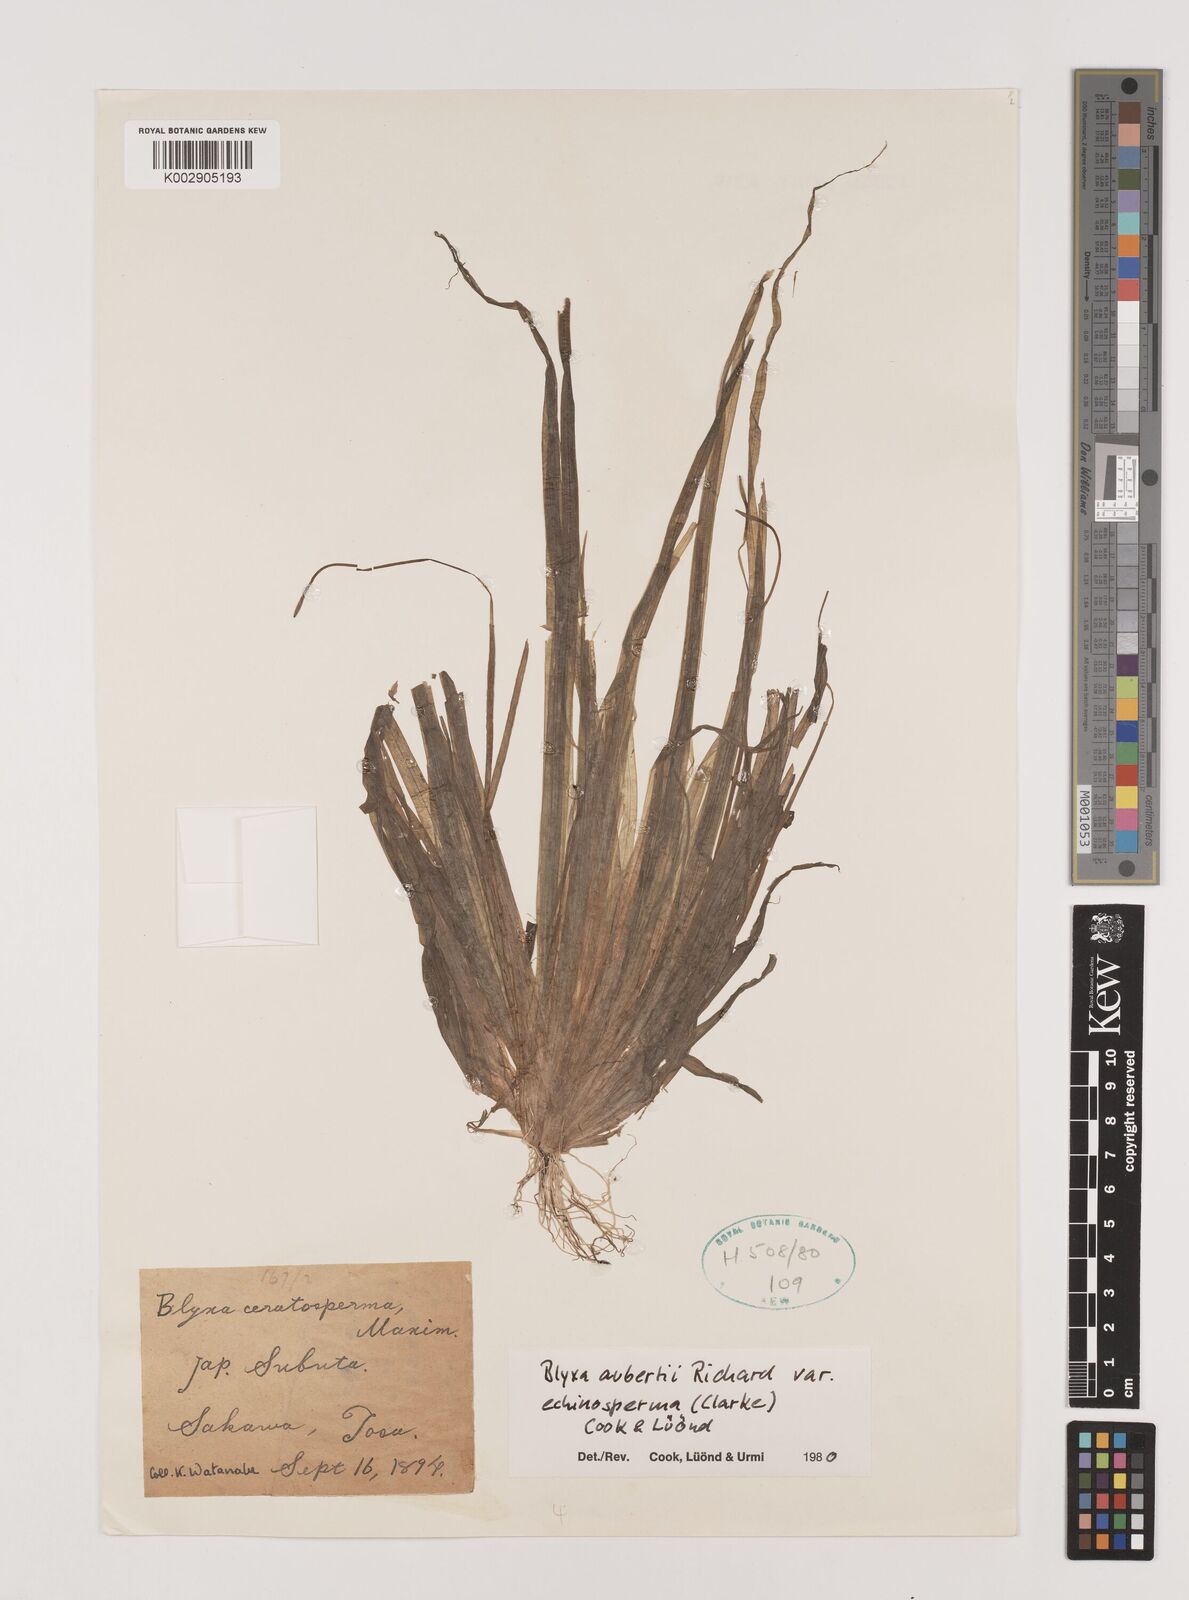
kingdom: Plantae
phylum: Tracheophyta
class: Liliopsida
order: Alismatales
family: Hydrocharitaceae
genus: Blyxa
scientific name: Blyxa echinosperma
